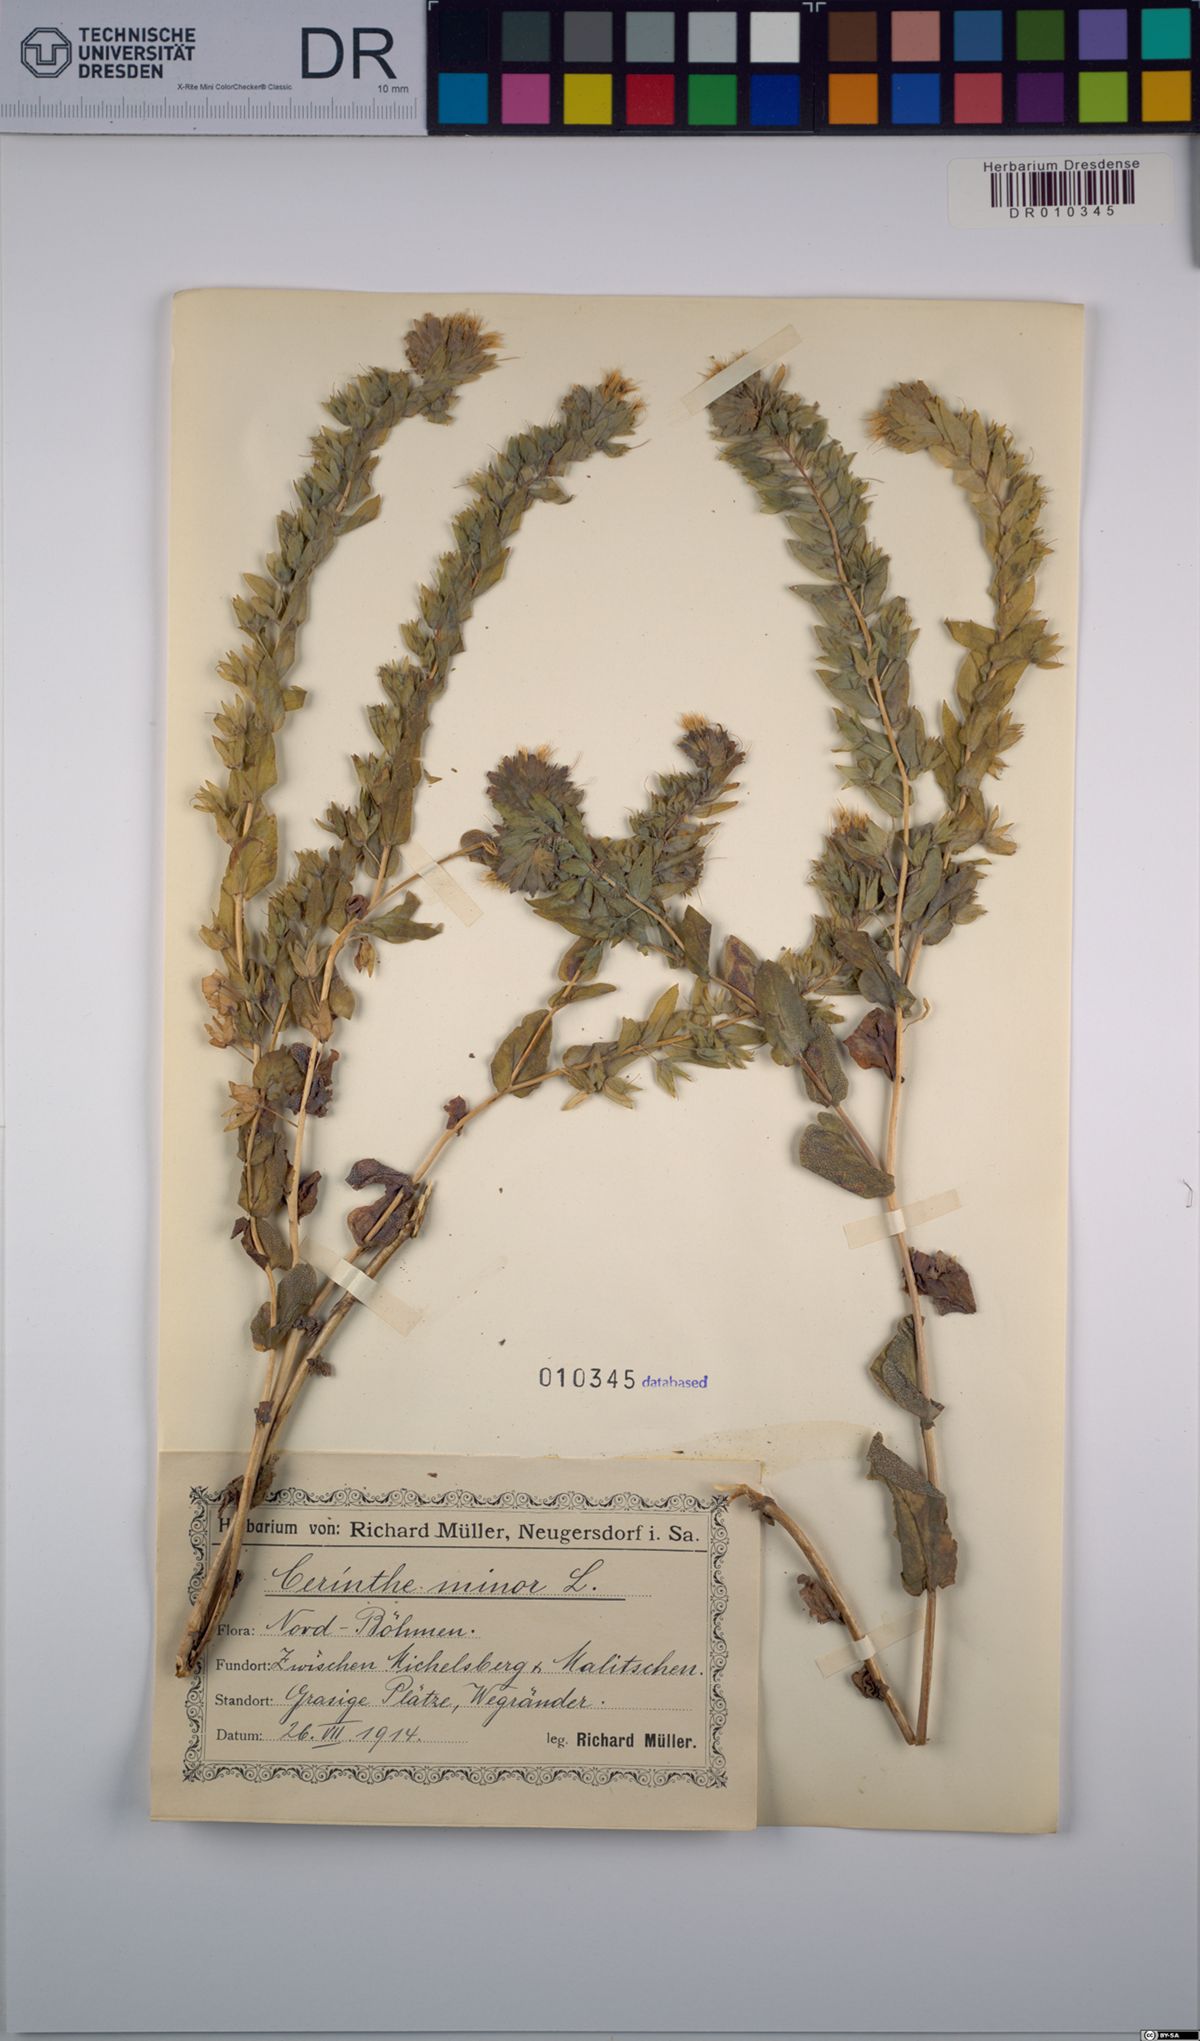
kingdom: Plantae
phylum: Tracheophyta
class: Magnoliopsida
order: Boraginales
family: Boraginaceae
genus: Cerinthe
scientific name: Cerinthe minor
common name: Lesser honeywort
